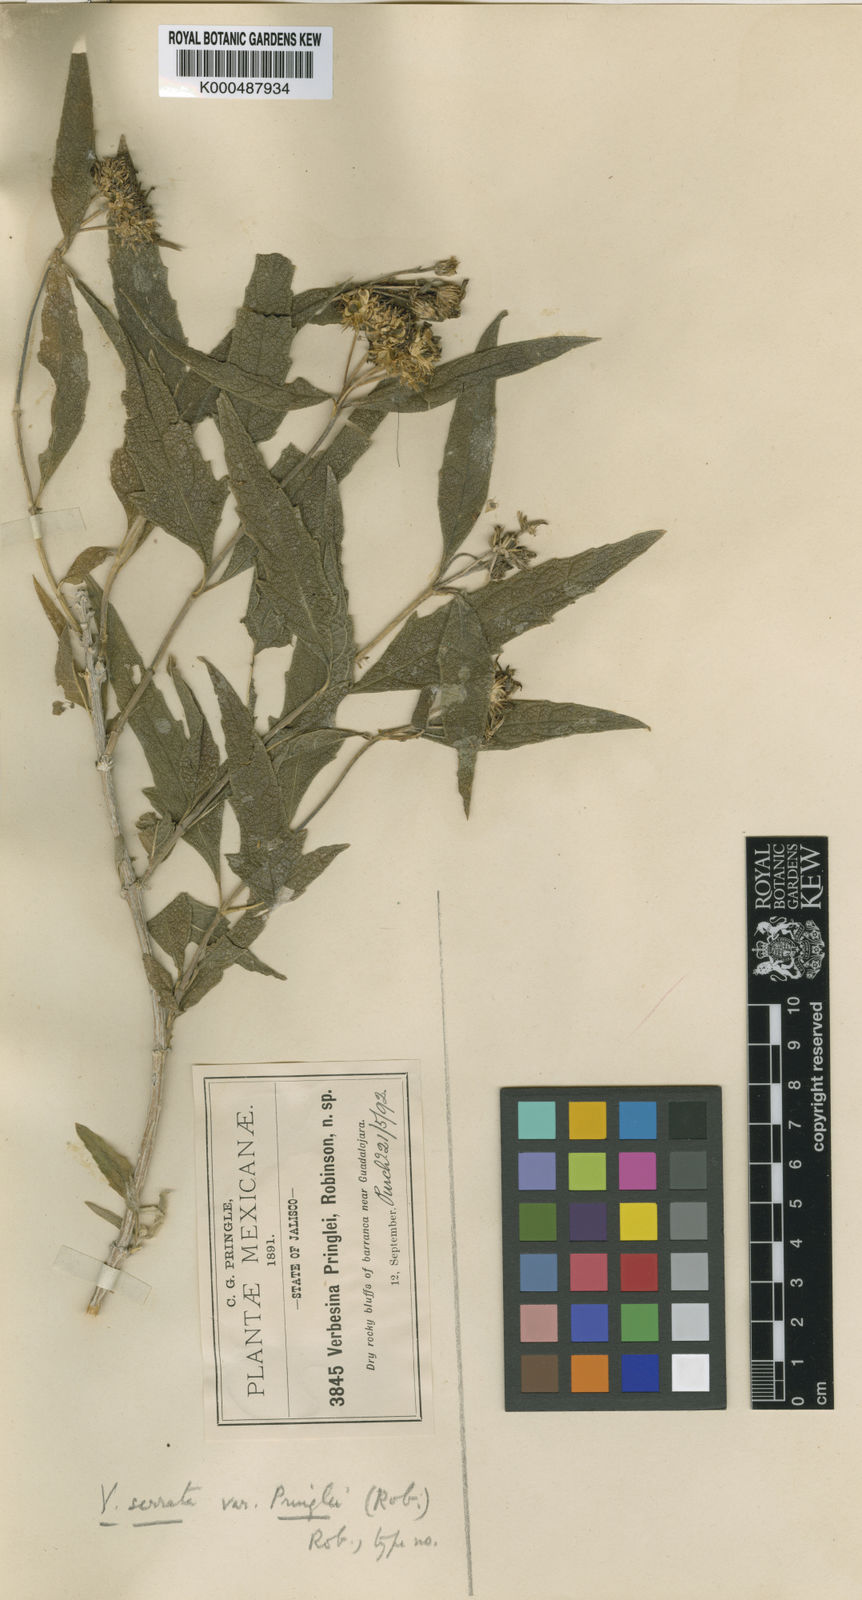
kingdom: Plantae
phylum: Tracheophyta
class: Magnoliopsida
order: Asterales
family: Asteraceae
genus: Verbesina
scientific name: Verbesina serrata
